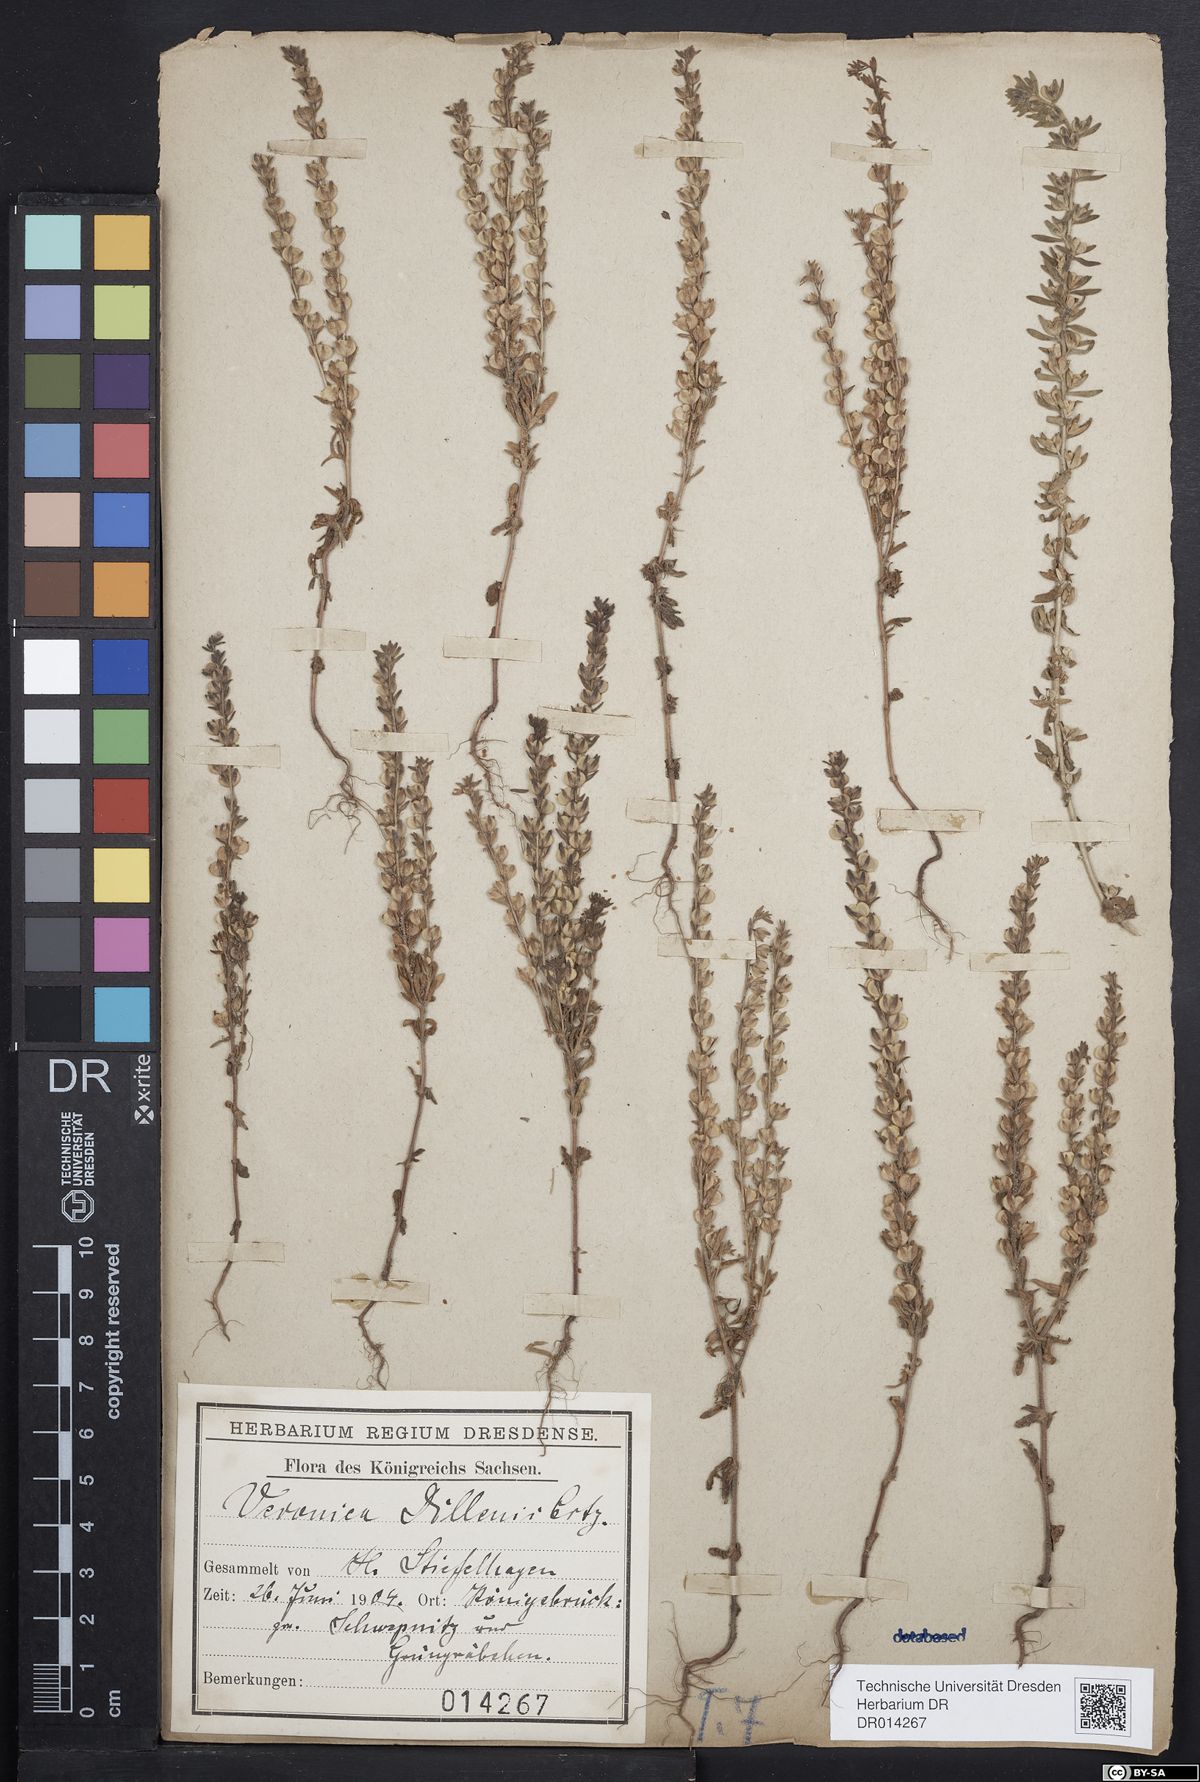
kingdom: Plantae
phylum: Tracheophyta
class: Magnoliopsida
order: Lamiales
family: Plantaginaceae
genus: Veronica
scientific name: Veronica dillenii
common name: Dillenius' speedwell
